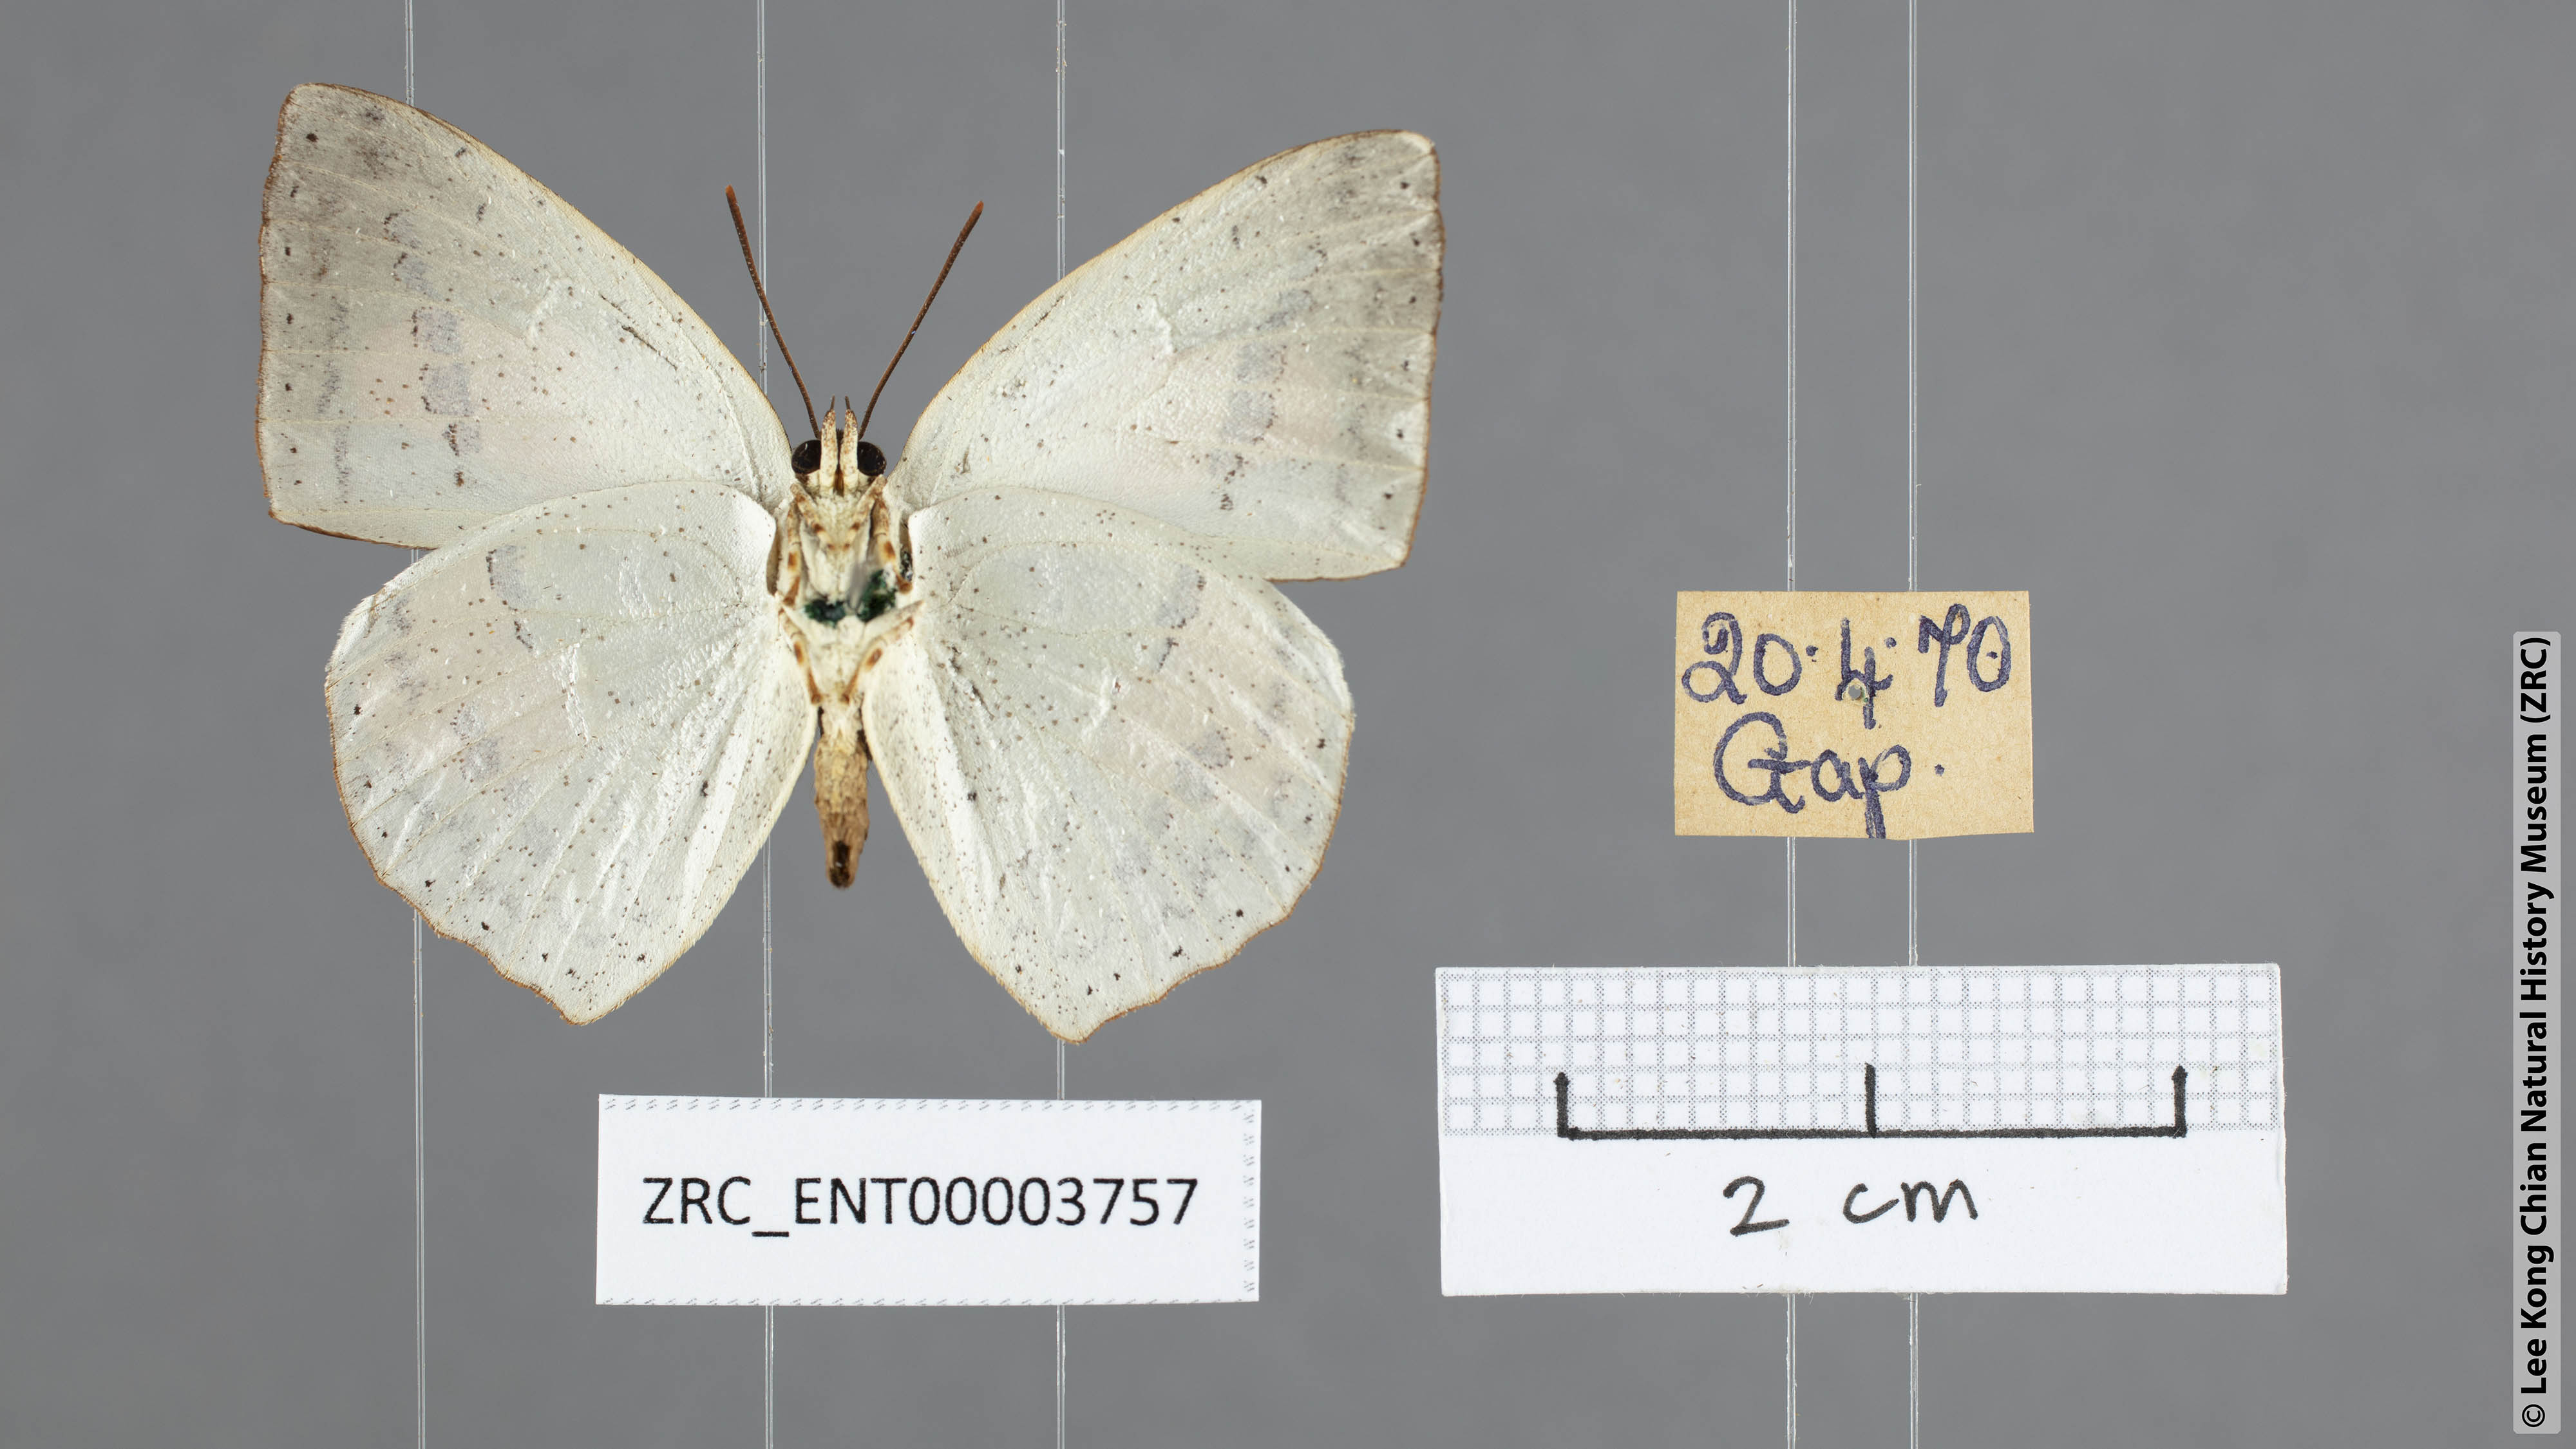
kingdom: Animalia
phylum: Arthropoda
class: Insecta
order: Lepidoptera
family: Lycaenidae
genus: Curetis
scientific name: Curetis sperthis
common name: Rounded sunbeam
